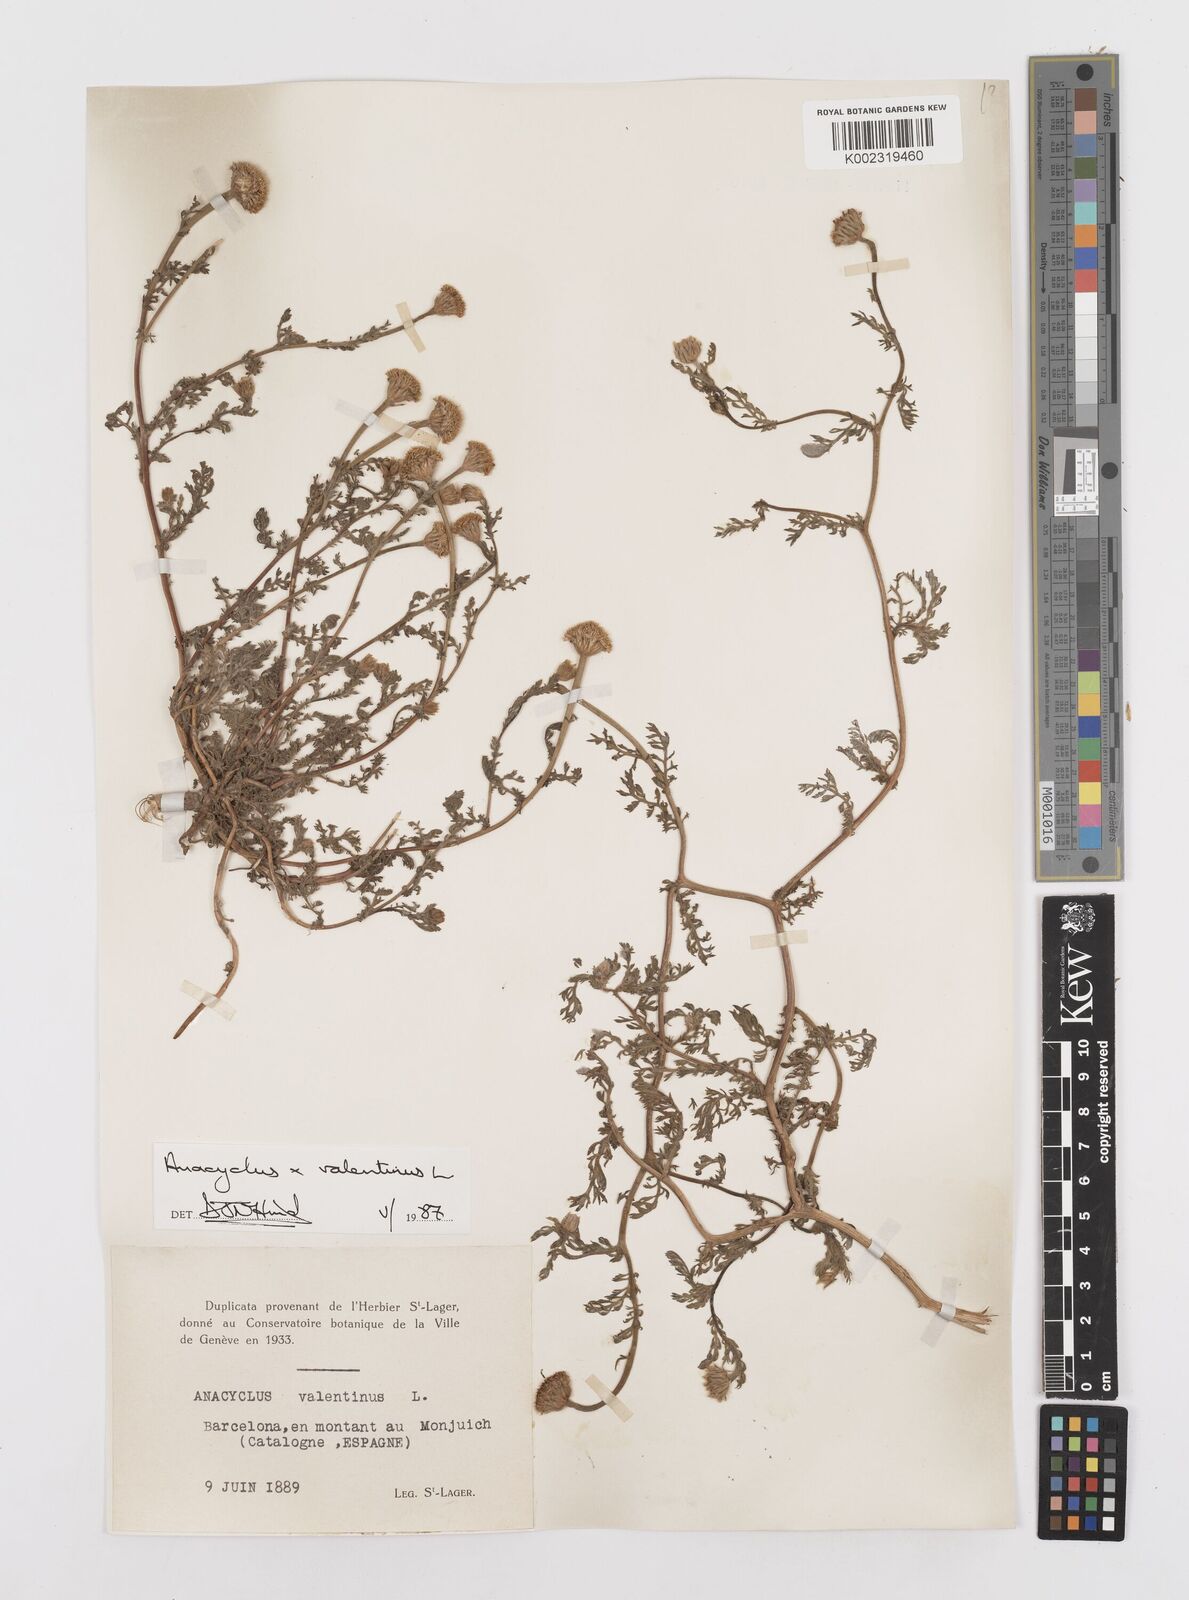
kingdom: Plantae
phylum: Tracheophyta
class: Magnoliopsida
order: Asterales
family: Asteraceae
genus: Anacyclus
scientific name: Anacyclus valentinus
